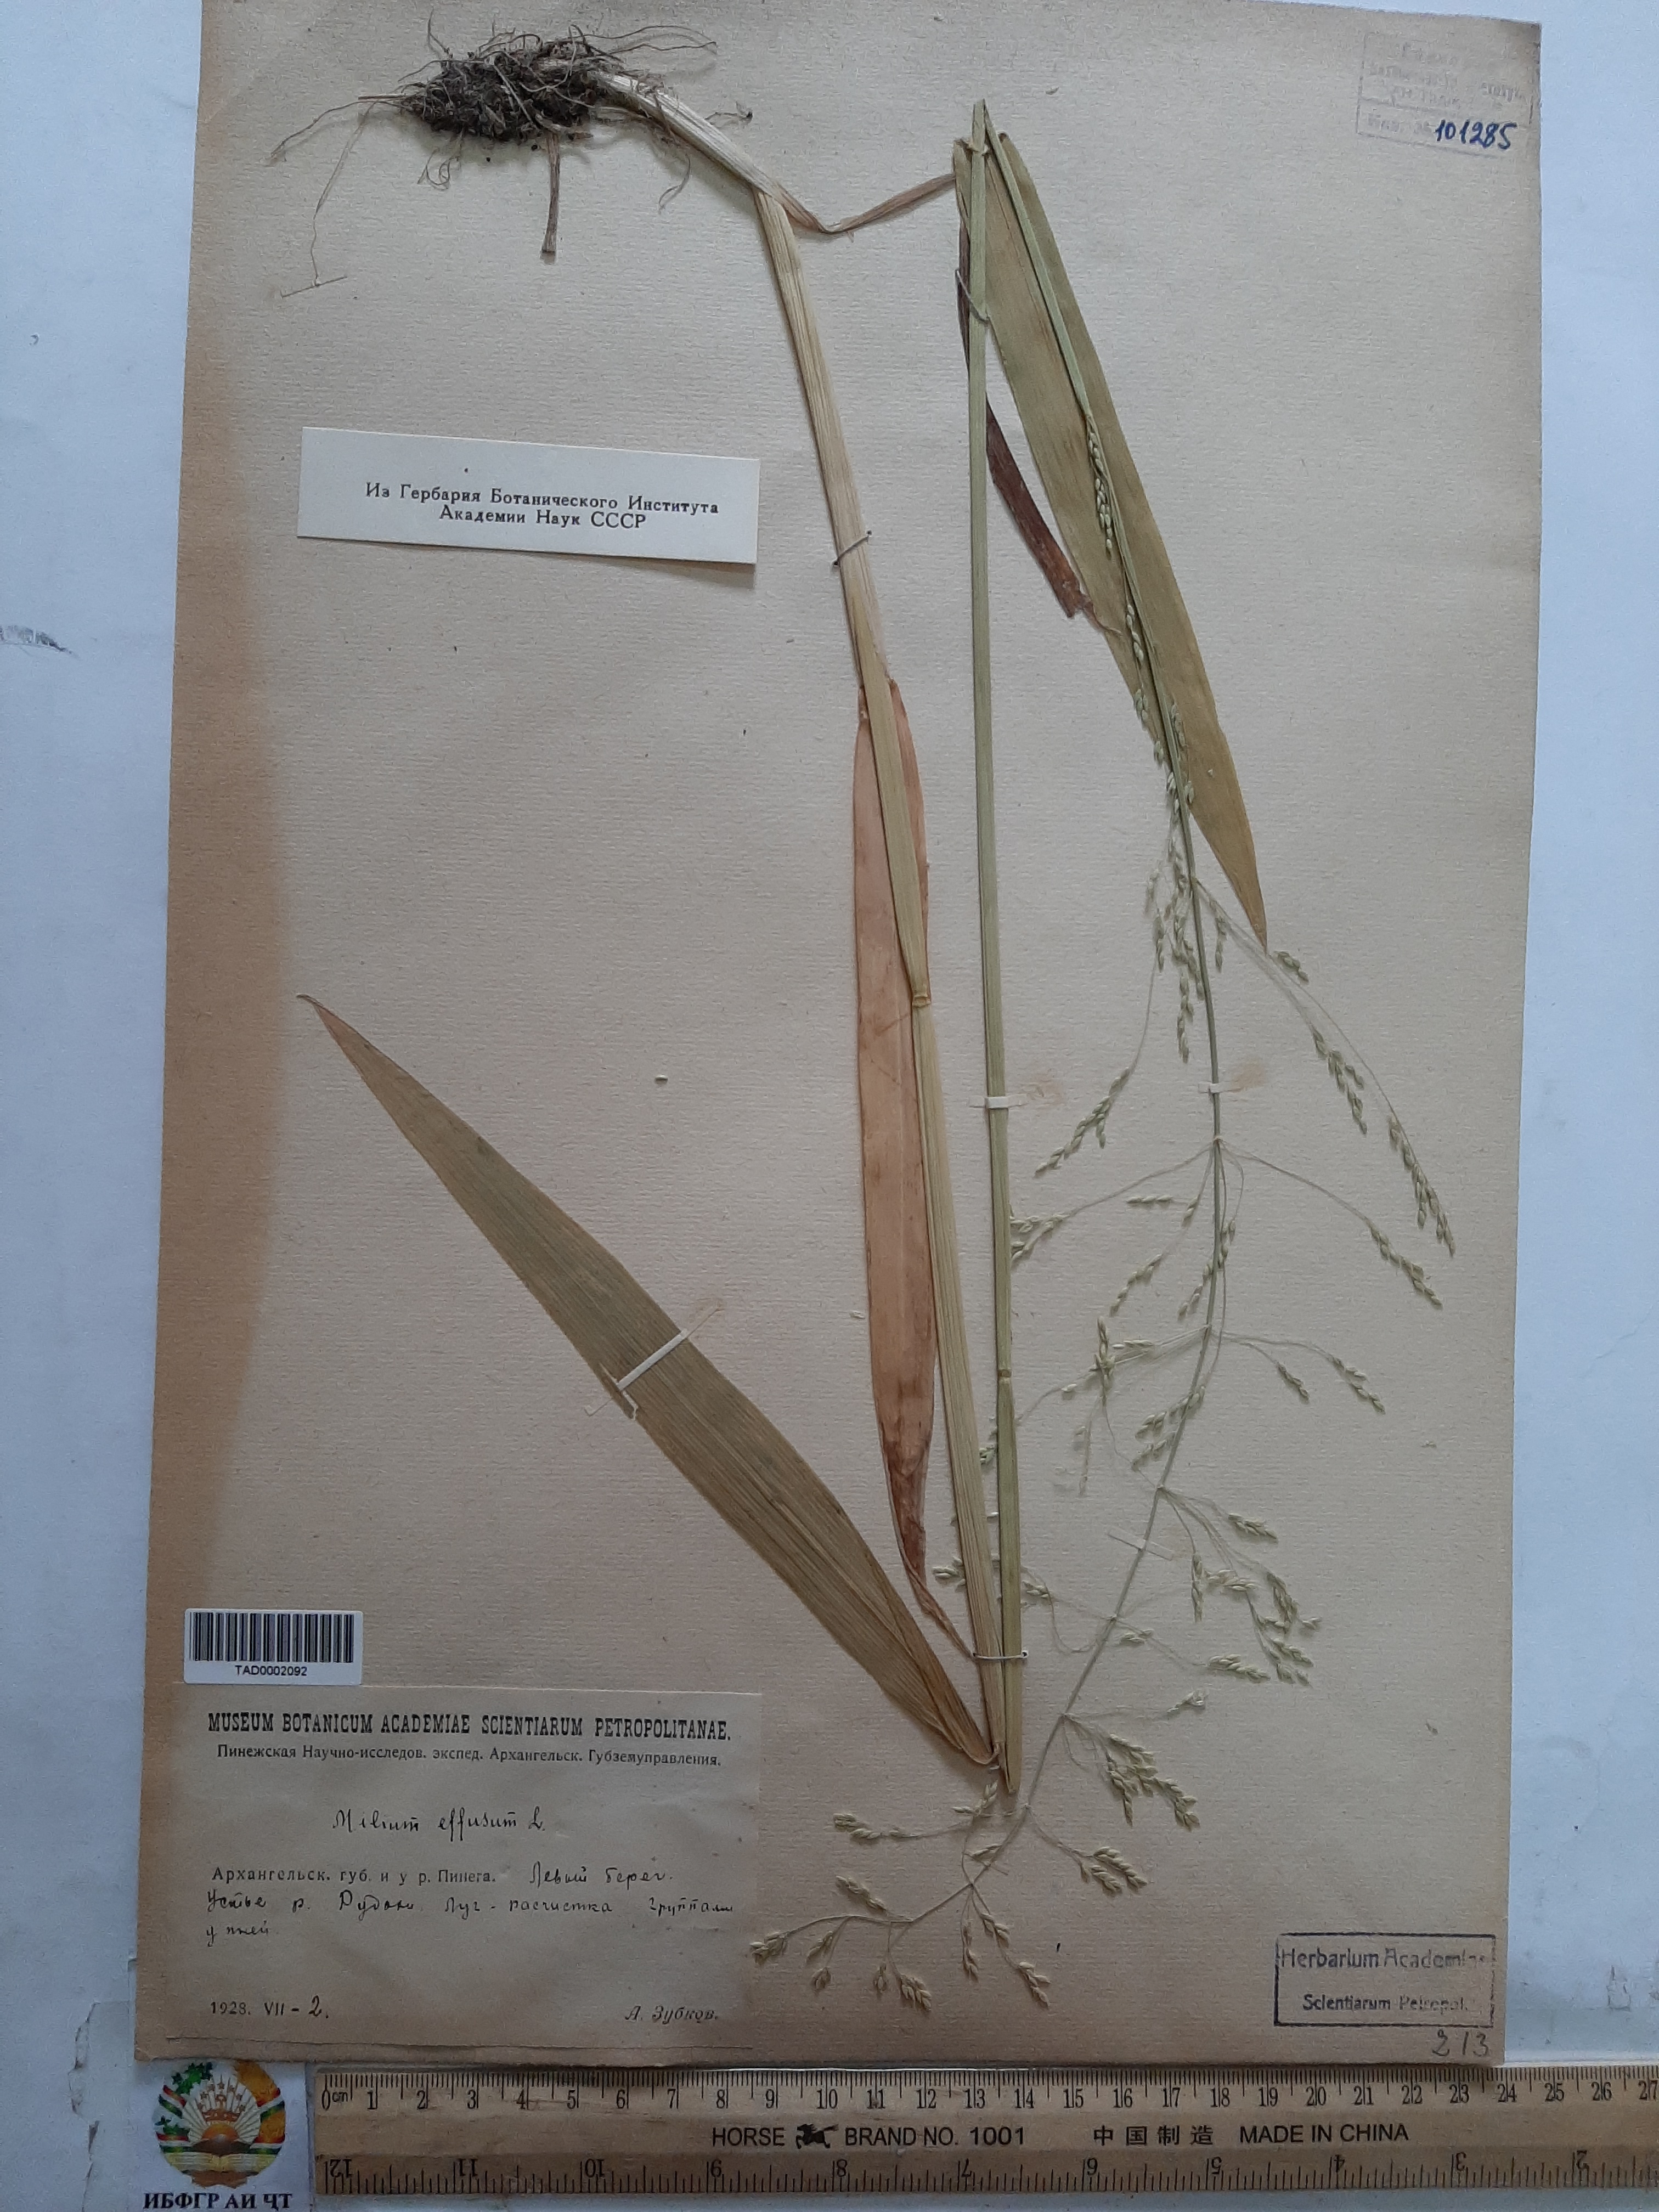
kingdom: Plantae
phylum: Tracheophyta
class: Liliopsida
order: Poales
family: Poaceae
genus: Milium
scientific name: Milium effusum
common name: Wood millet
